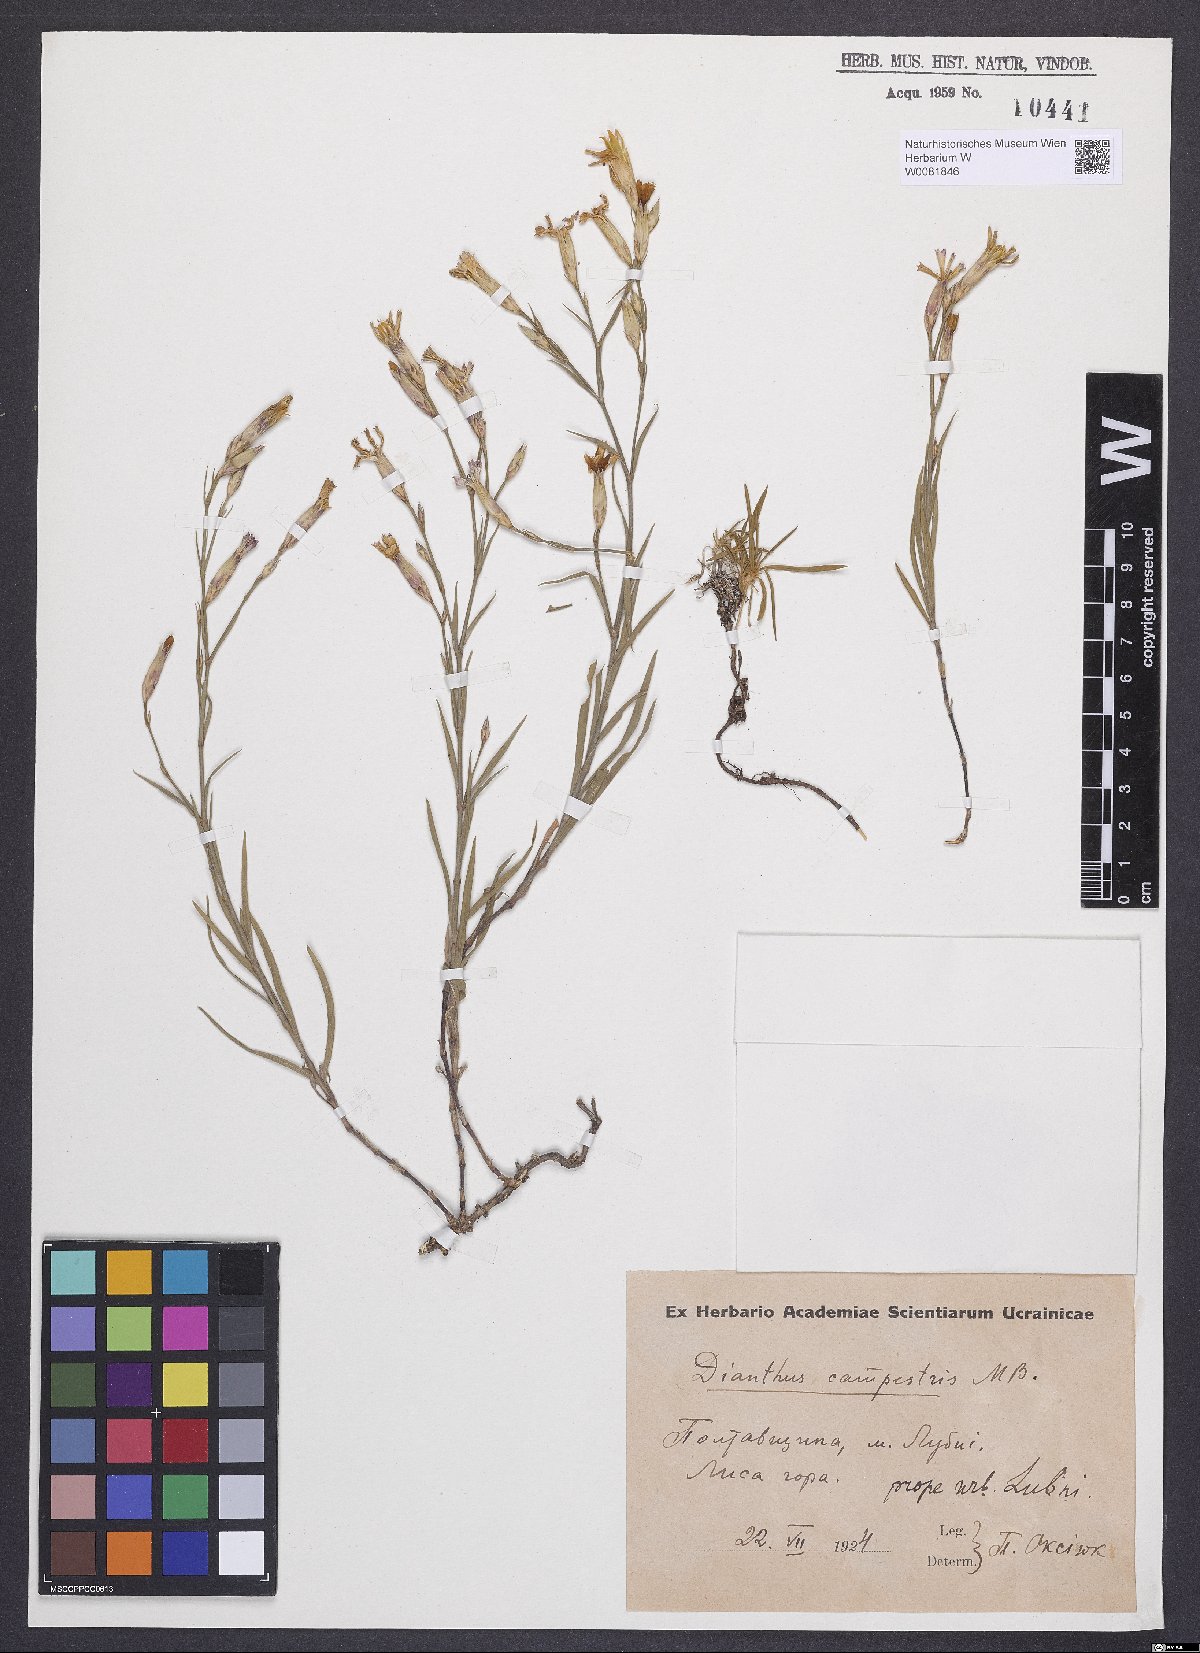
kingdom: Plantae
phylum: Tracheophyta
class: Magnoliopsida
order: Caryophyllales
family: Caryophyllaceae
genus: Dianthus
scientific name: Dianthus campestris
